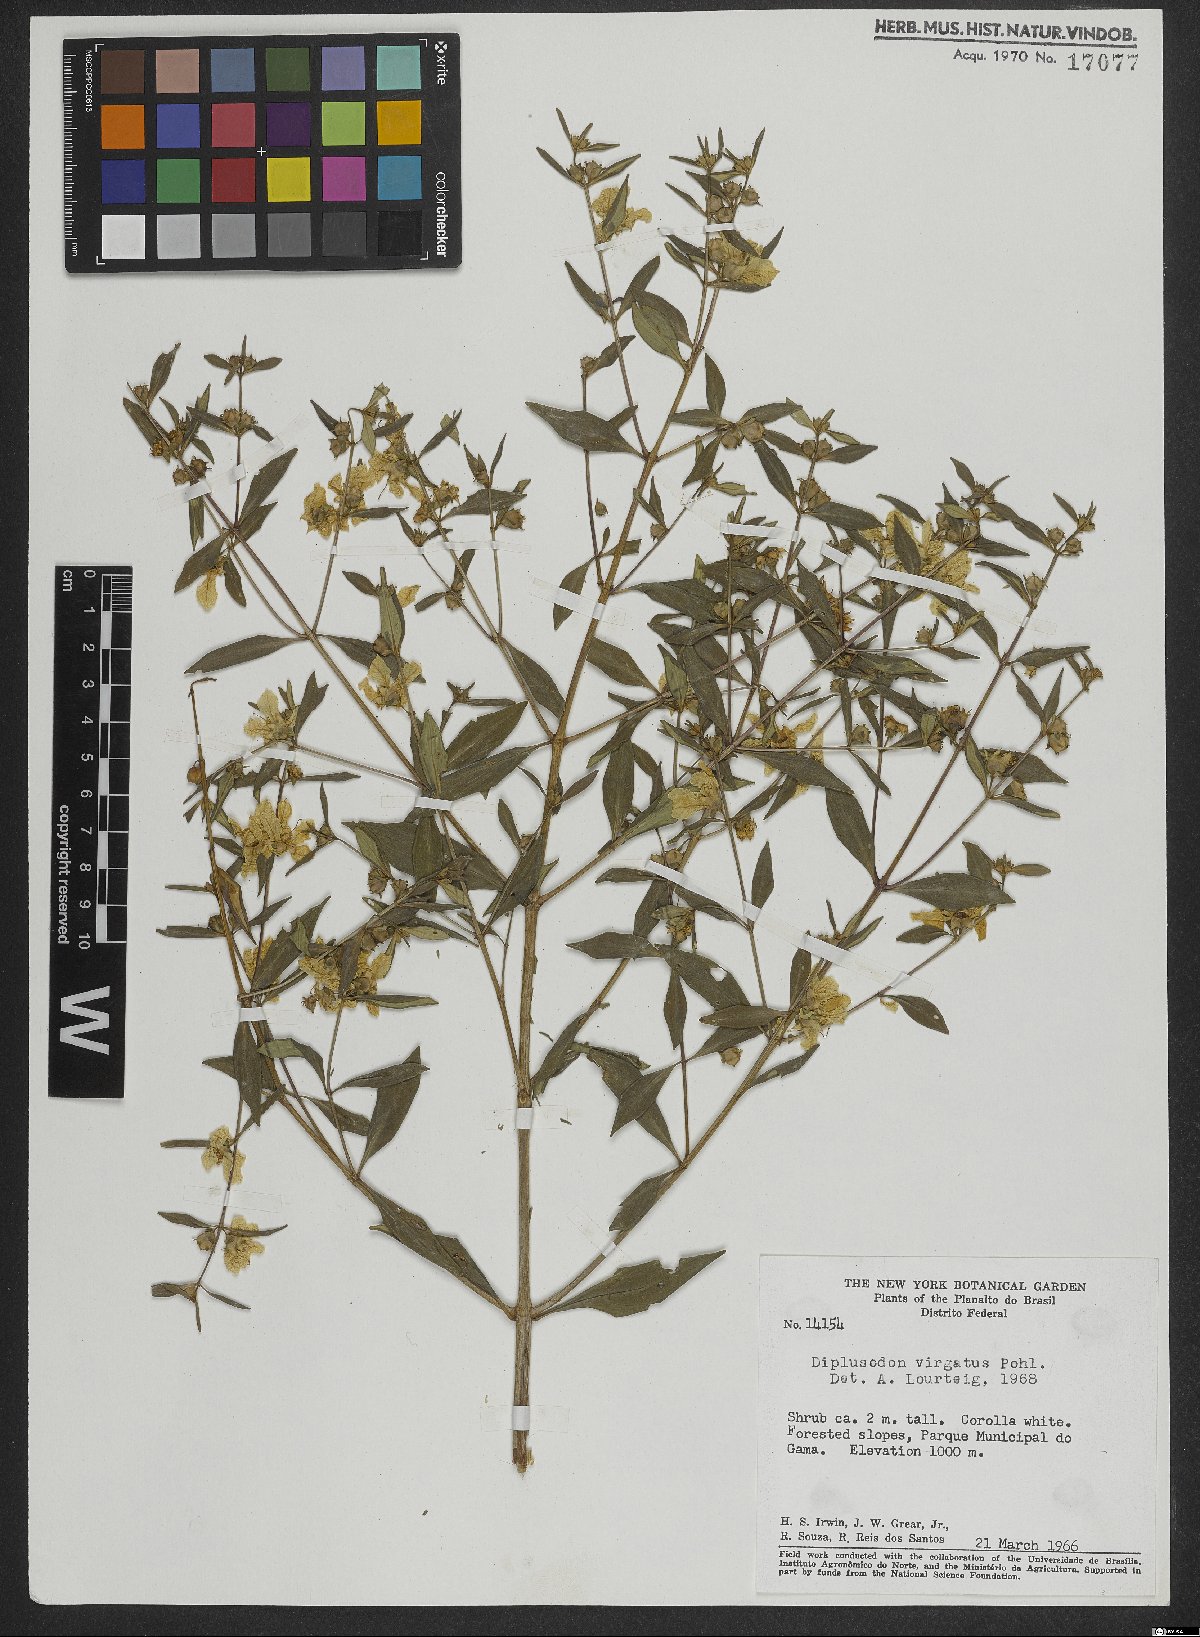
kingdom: Plantae
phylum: Tracheophyta
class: Magnoliopsida
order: Myrtales
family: Lythraceae
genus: Diplusodon
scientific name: Diplusodon virgatus
